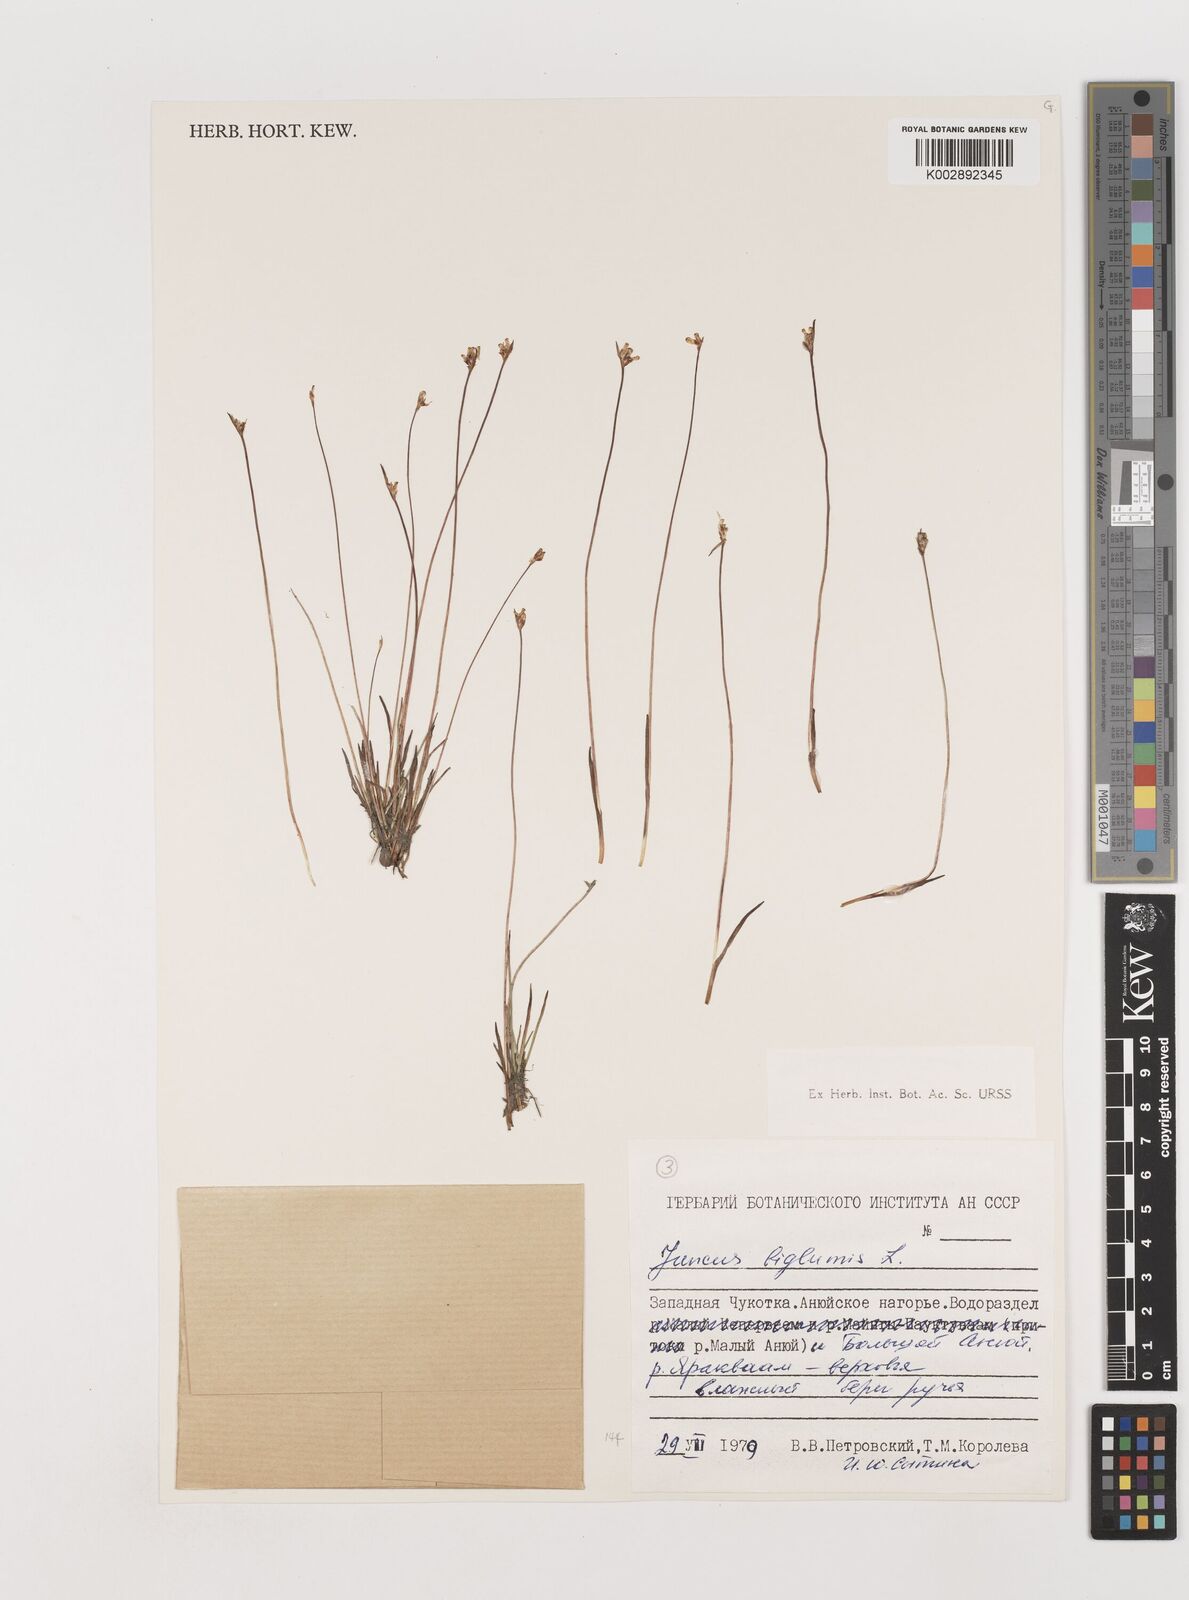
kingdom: Plantae
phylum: Tracheophyta
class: Liliopsida
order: Poales
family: Juncaceae
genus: Juncus
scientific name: Juncus biglumis
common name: Two-flowered rush
